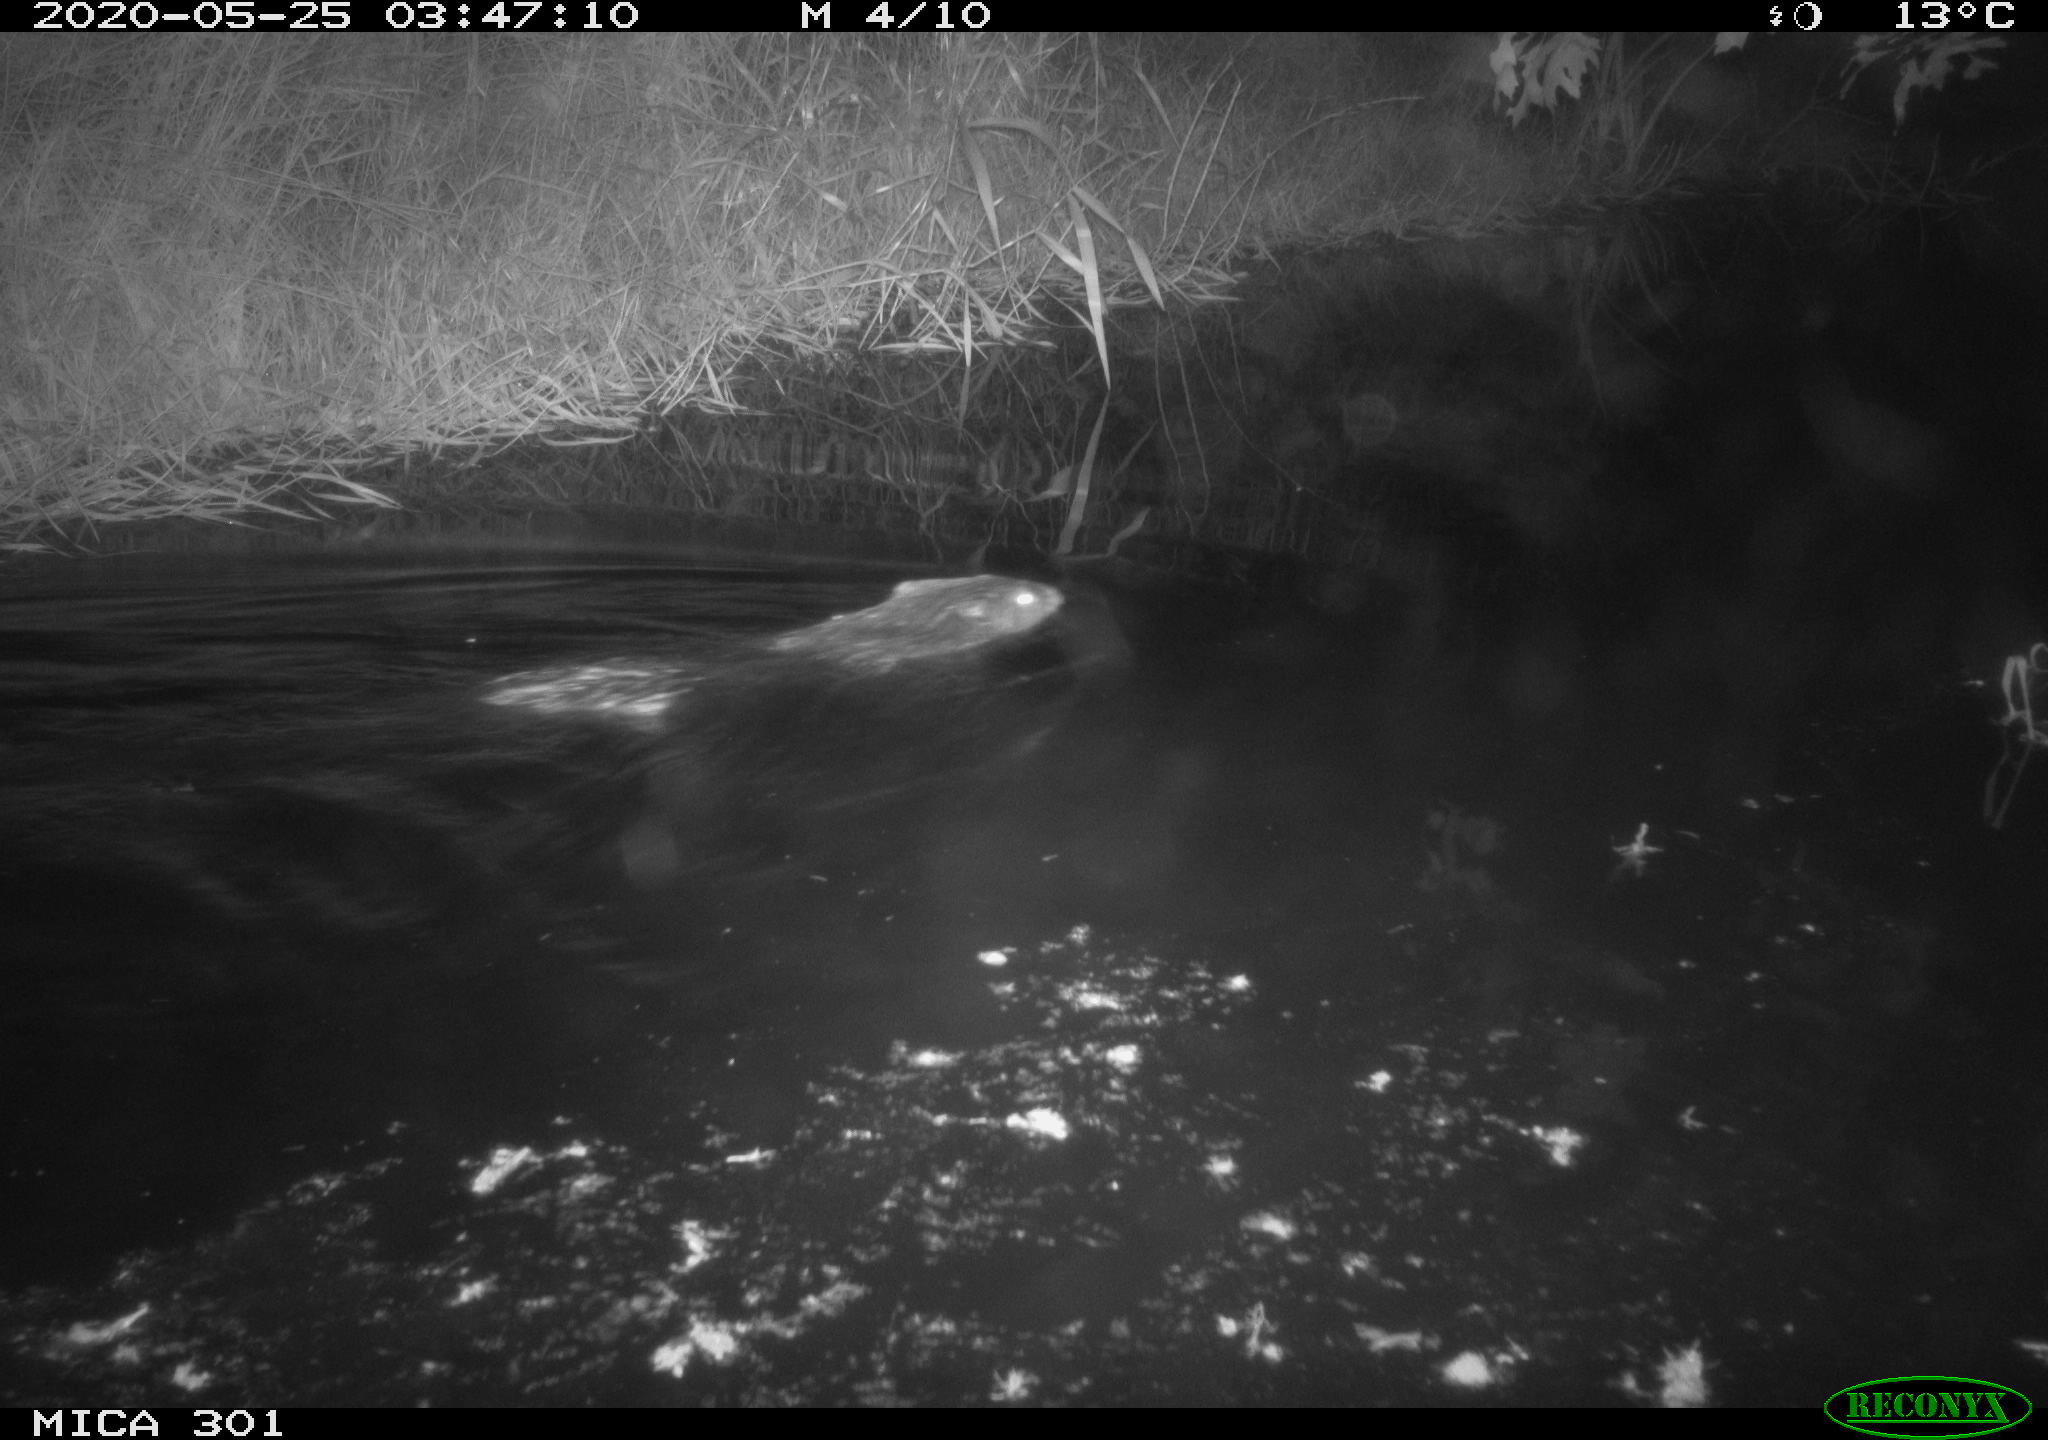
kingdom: Animalia
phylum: Chordata
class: Mammalia
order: Rodentia
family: Castoridae
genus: Castor
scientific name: Castor fiber
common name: Eurasian beaver
